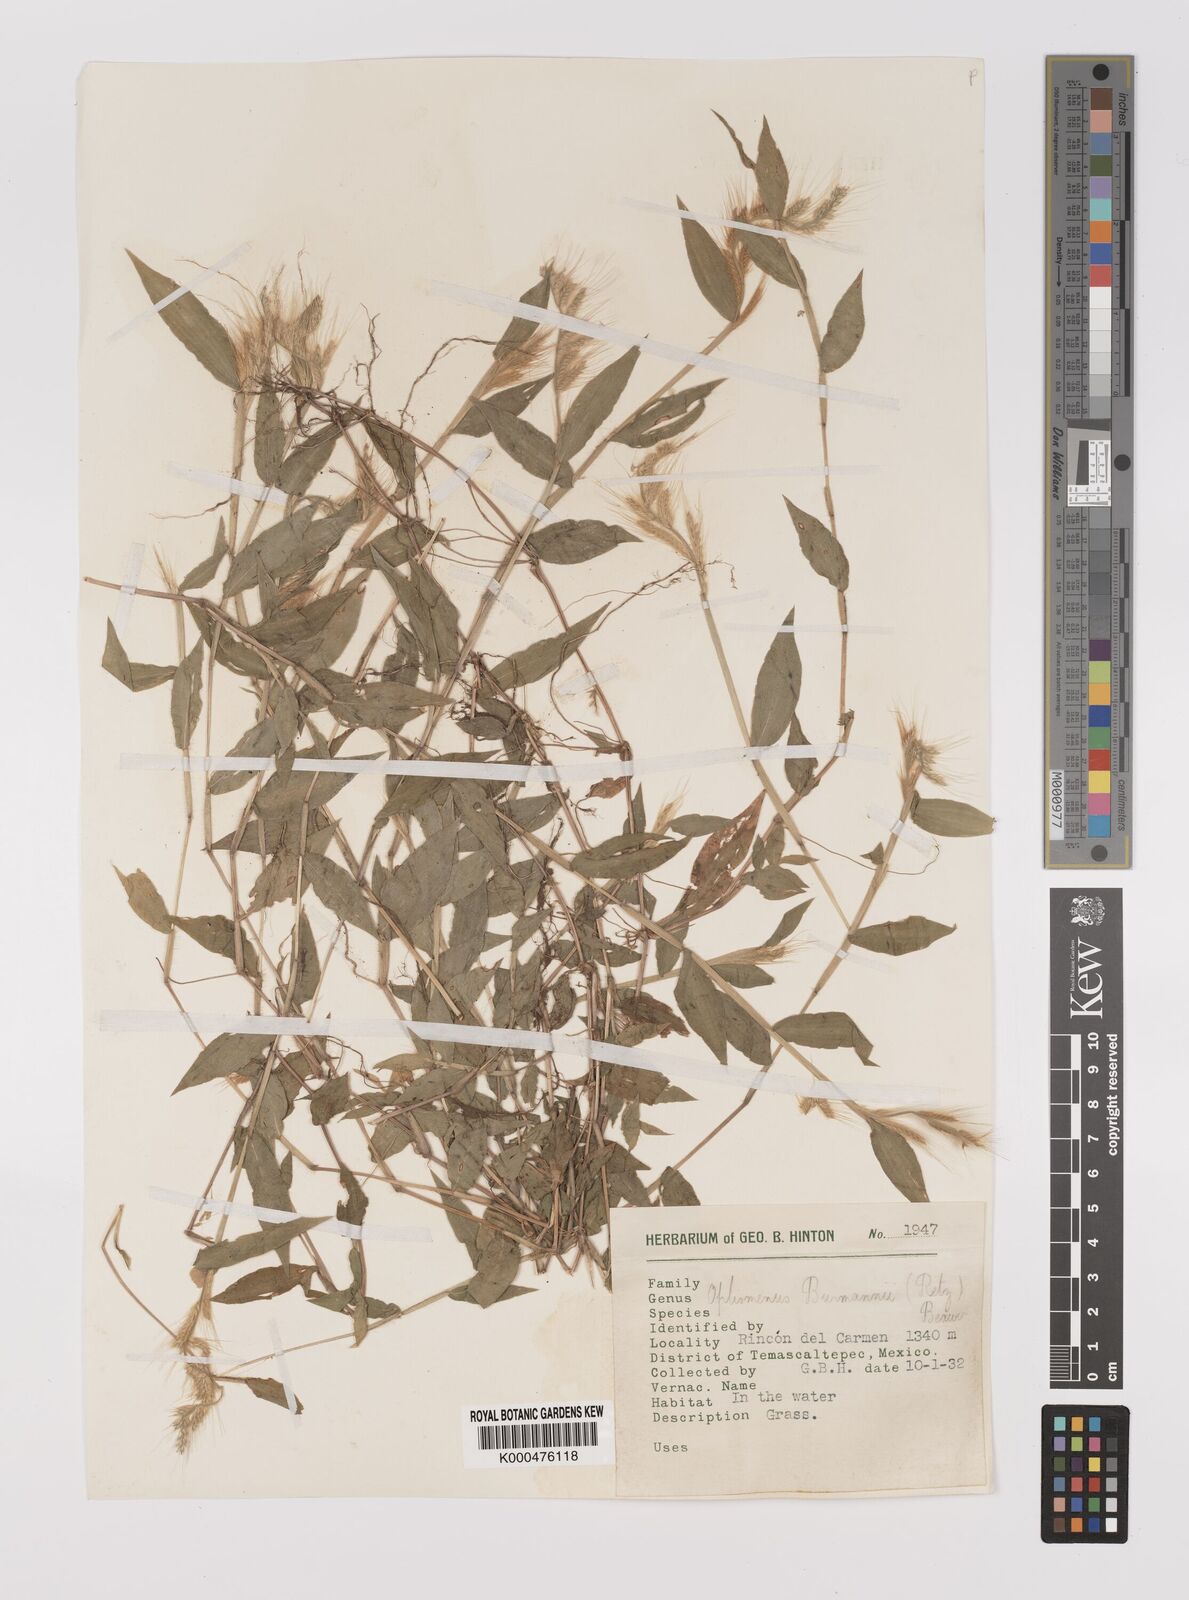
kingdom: Plantae
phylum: Tracheophyta
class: Liliopsida
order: Poales
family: Poaceae
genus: Oplismenus
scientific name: Oplismenus burmanni
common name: Burmann's basketgrass
